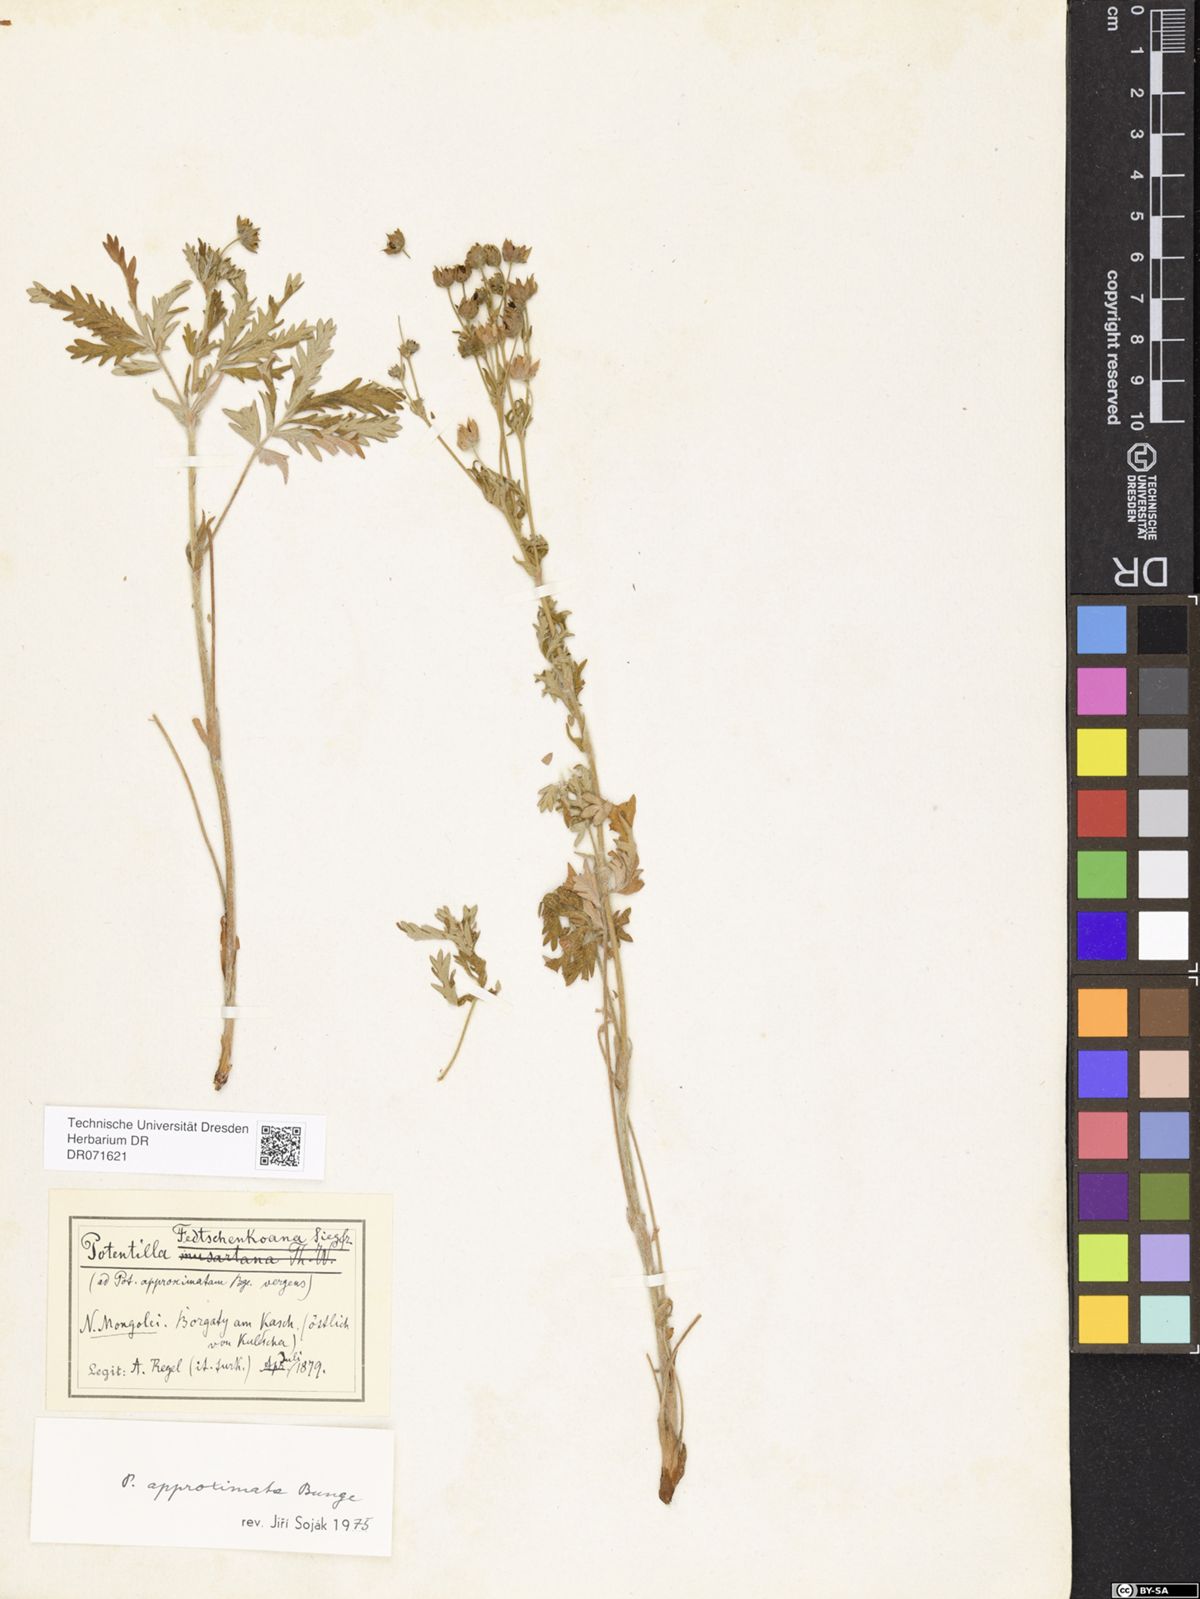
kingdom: Plantae
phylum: Tracheophyta
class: Magnoliopsida
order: Rosales
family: Rosaceae
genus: Potentilla
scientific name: Potentilla conferta
